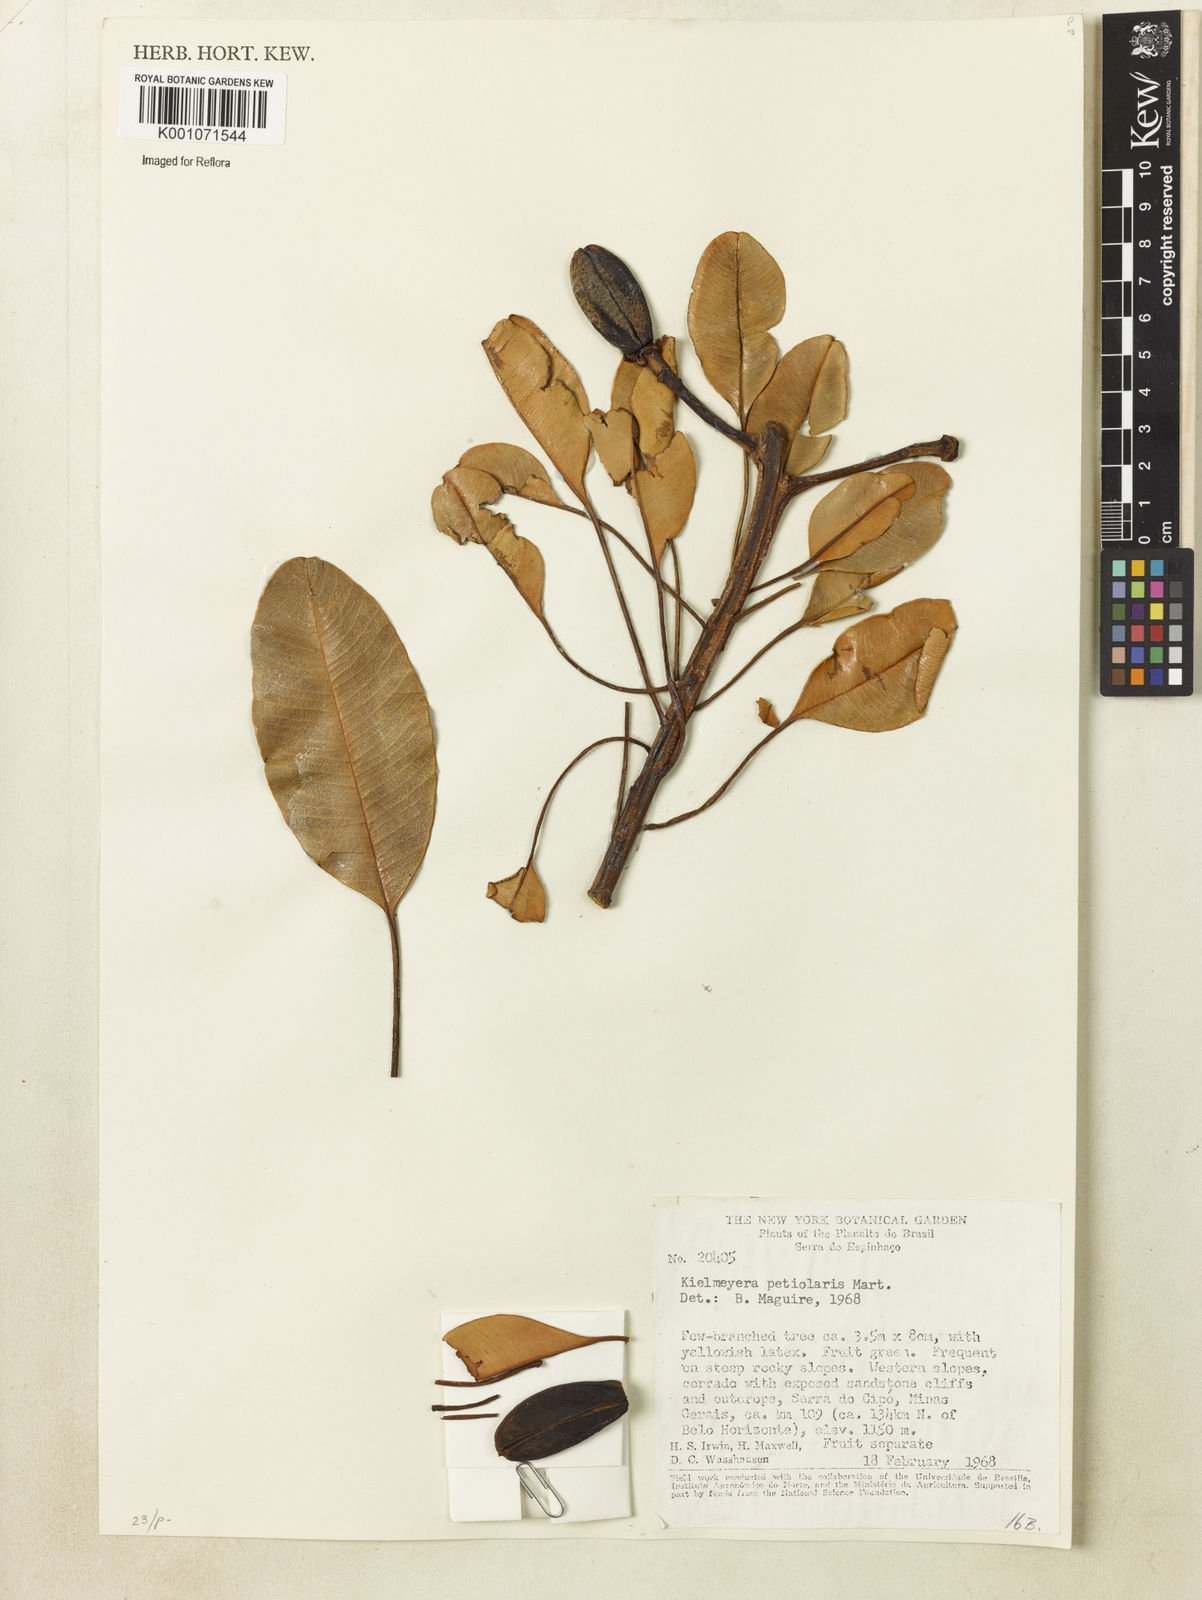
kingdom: Plantae
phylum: Tracheophyta
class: Magnoliopsida
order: Malpighiales
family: Calophyllaceae
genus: Kielmeyera
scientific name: Kielmeyera petiolaris
